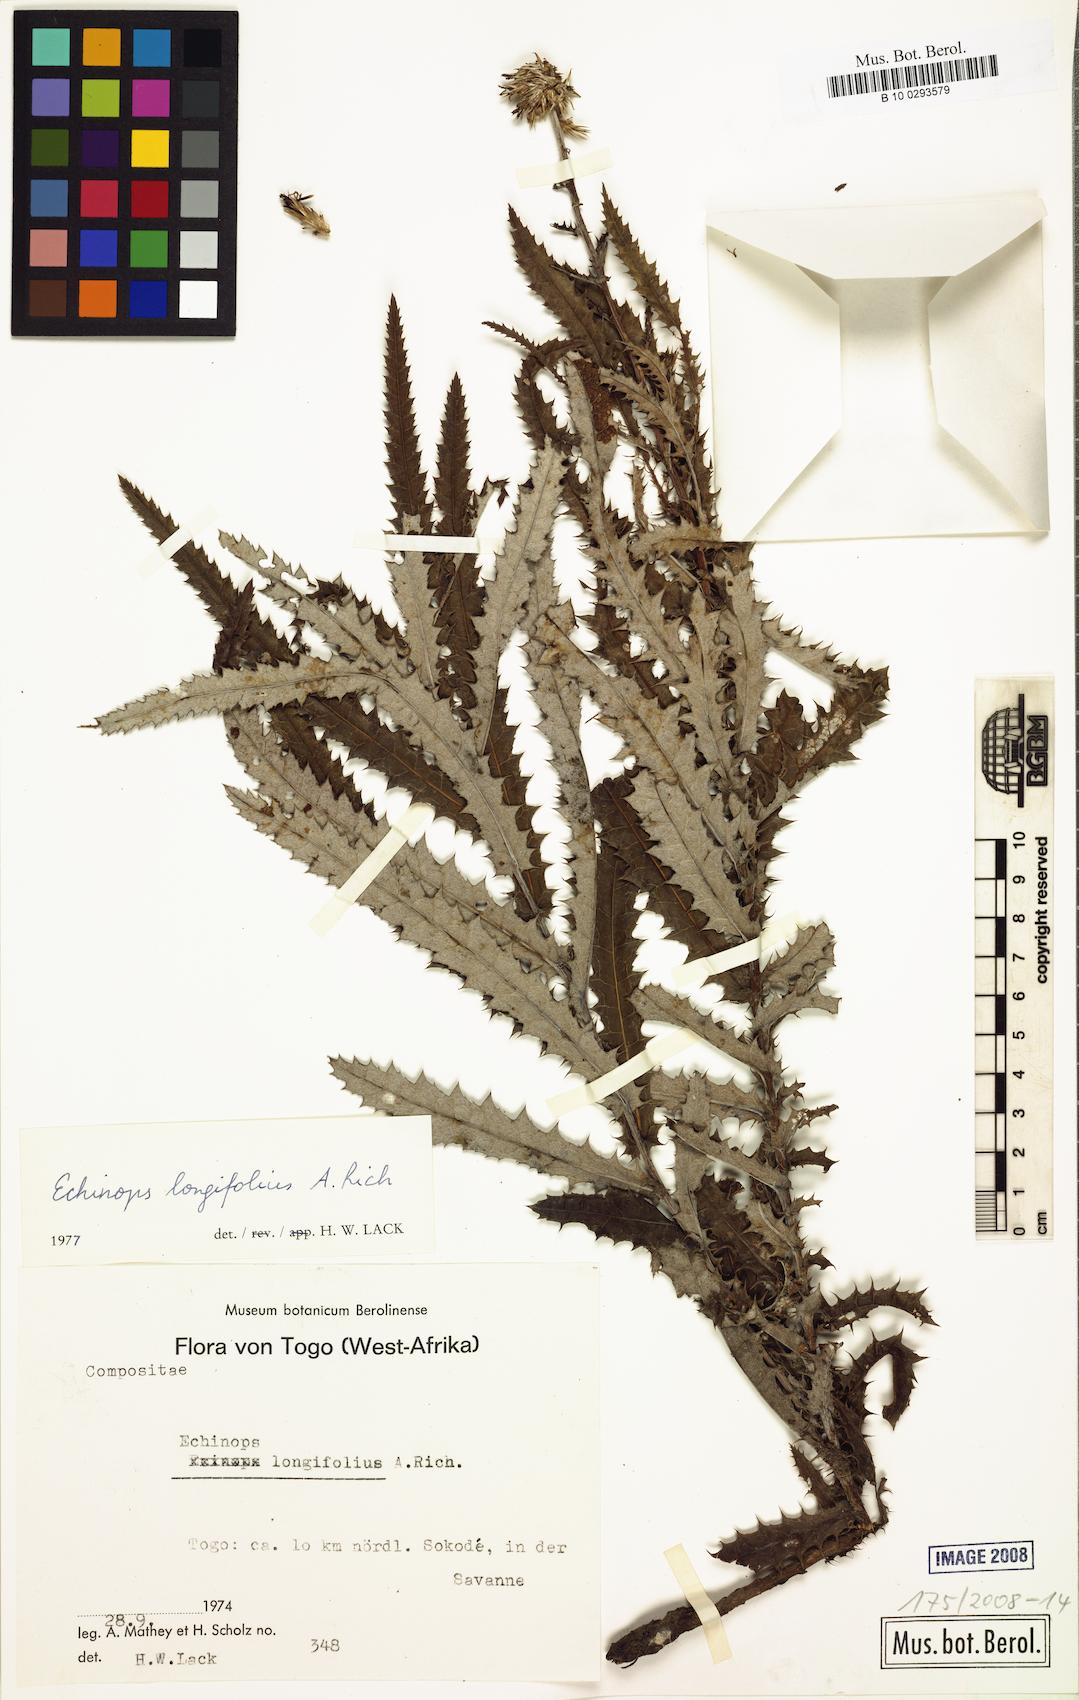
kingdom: Plantae
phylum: Tracheophyta
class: Magnoliopsida
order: Asterales
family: Asteraceae
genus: Echinops
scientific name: Echinops longifolius
